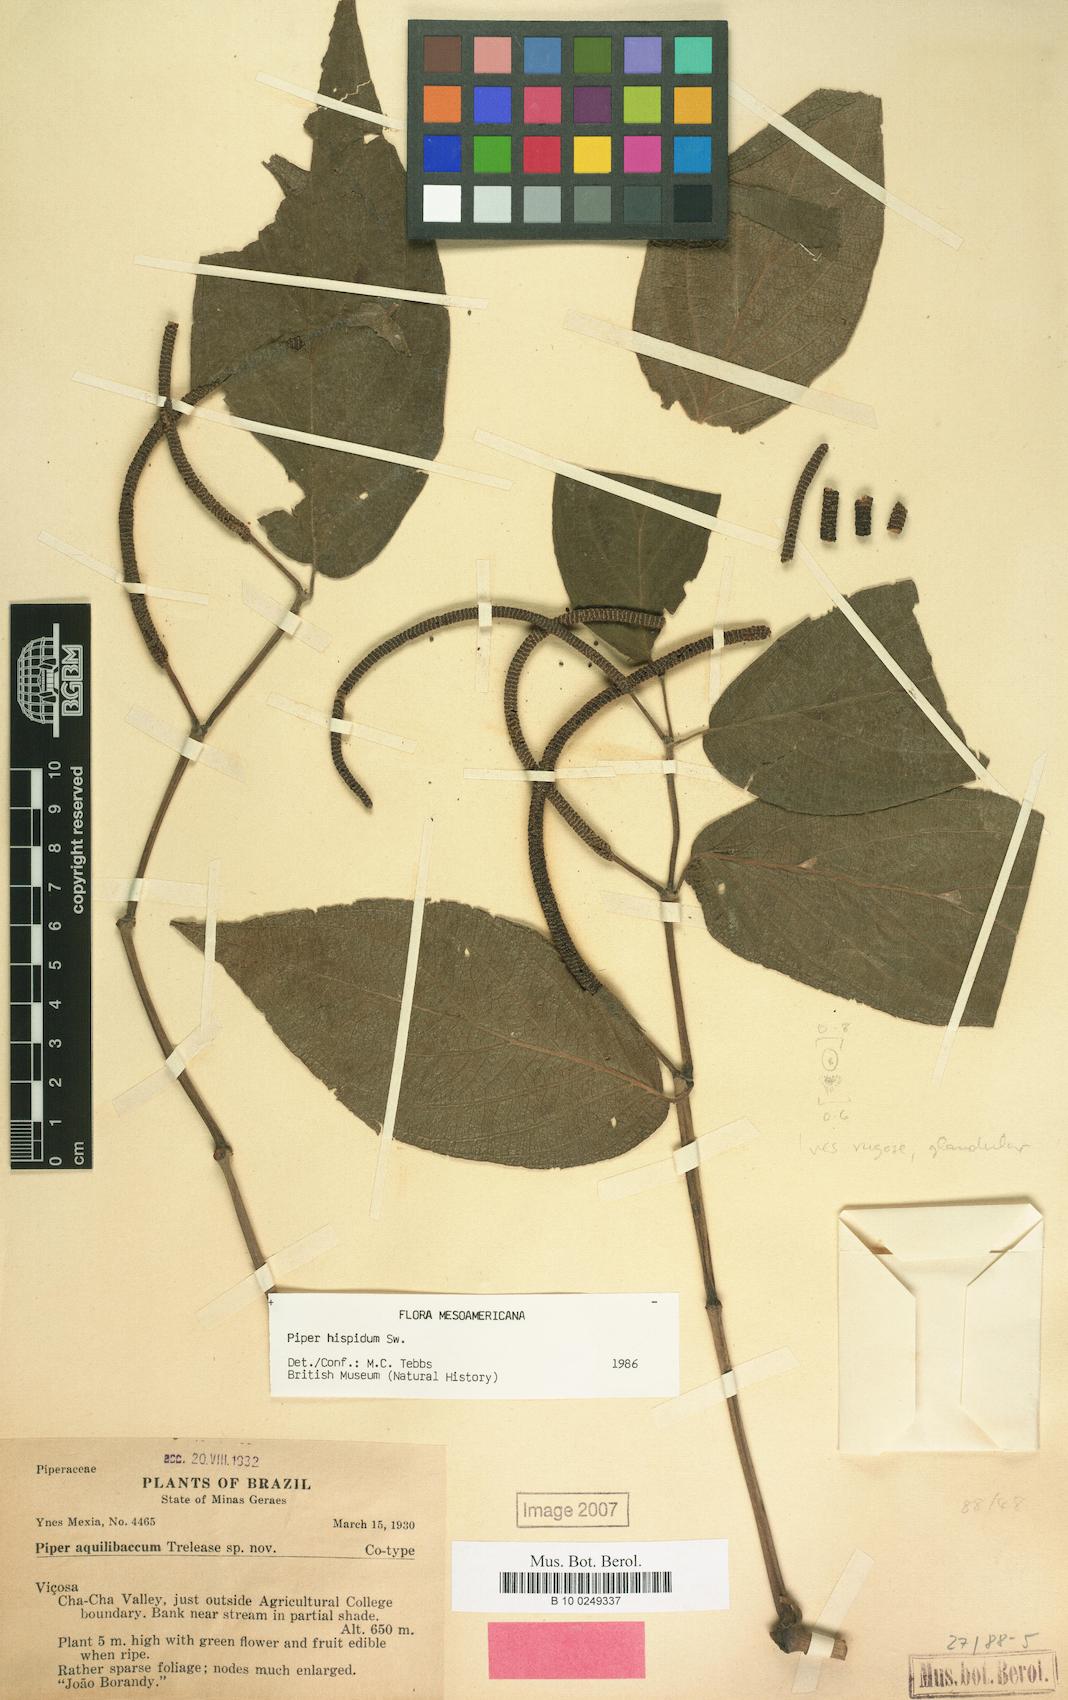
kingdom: Plantae
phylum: Tracheophyta
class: Magnoliopsida
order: Piperales
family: Piperaceae
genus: Piper
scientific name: Piper hispidum
